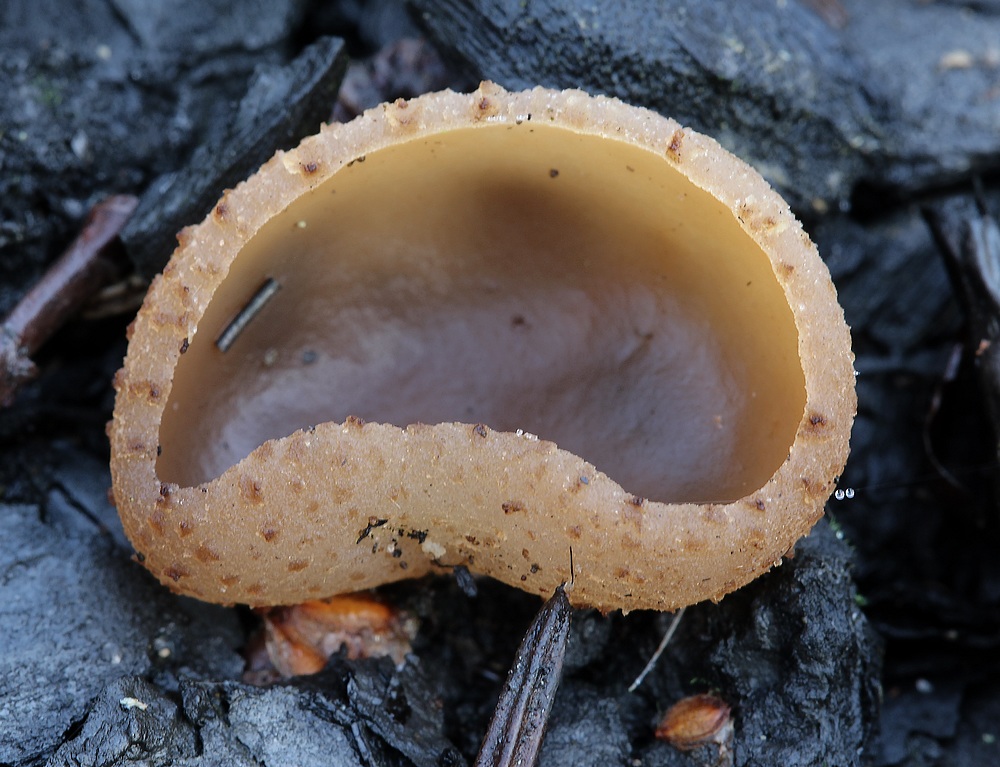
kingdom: Fungi
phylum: Ascomycota
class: Pezizomycetes
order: Pezizales
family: Pezizaceae
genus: Peziza
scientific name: Peziza
